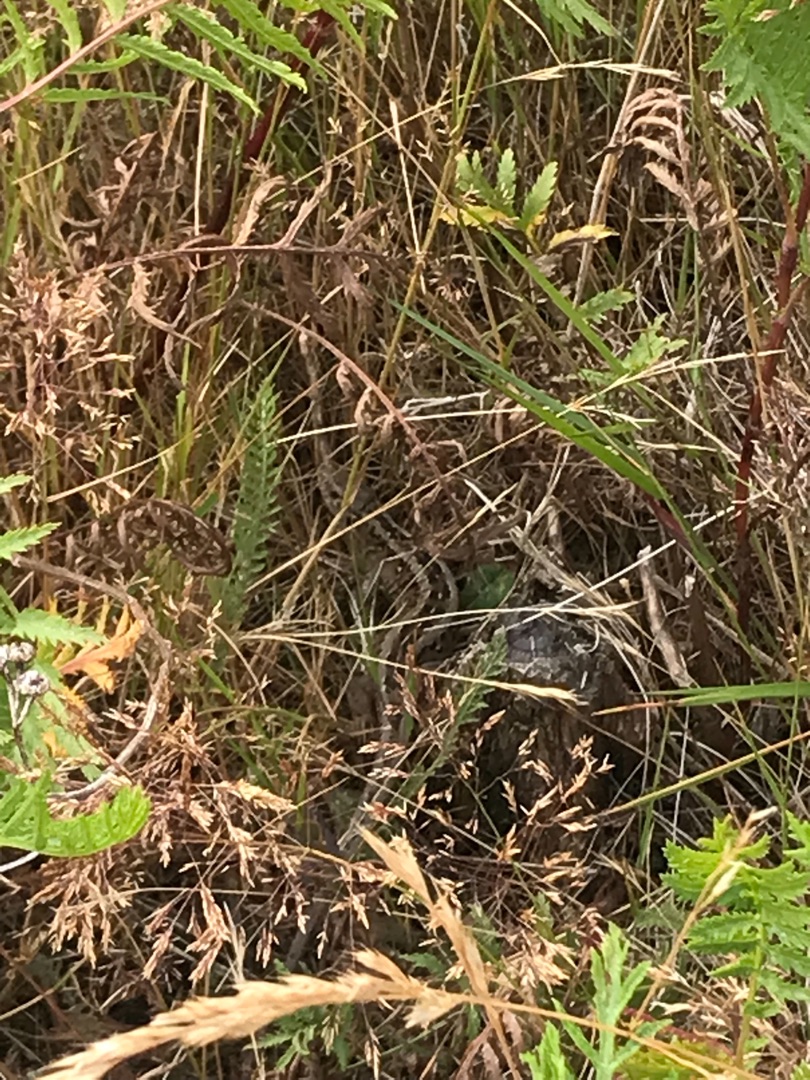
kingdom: Animalia
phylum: Chordata
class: Squamata
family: Lacertidae
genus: Lacerta
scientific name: Lacerta agilis
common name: Markfirben
